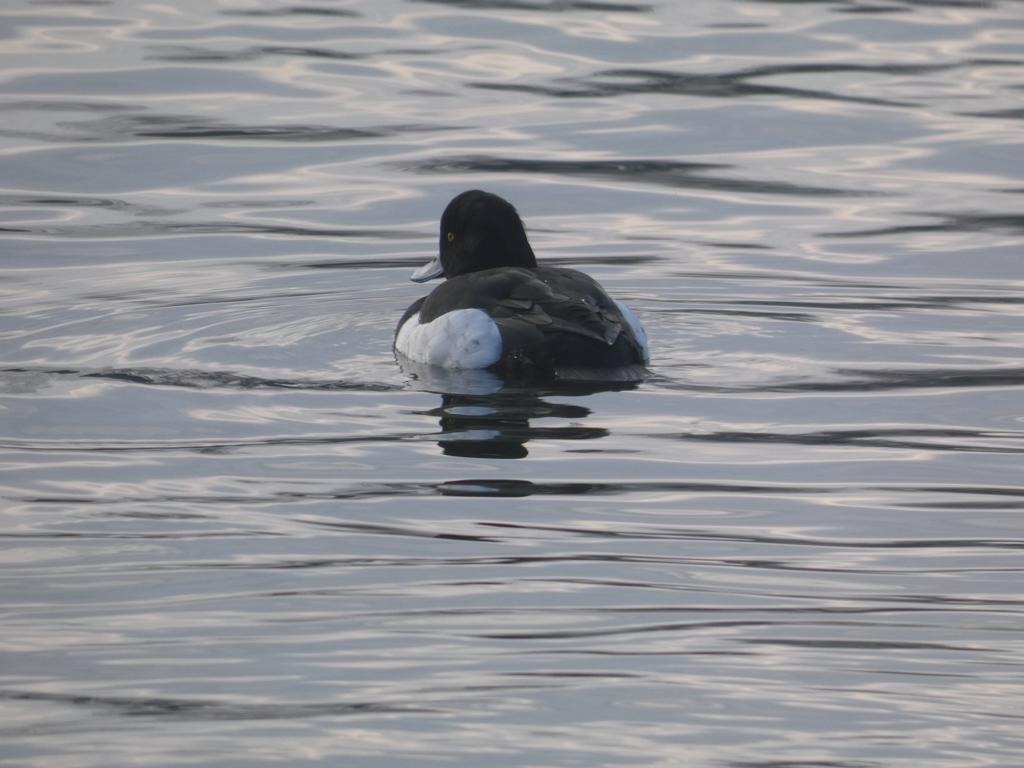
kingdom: Animalia
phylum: Chordata
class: Aves
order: Anseriformes
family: Anatidae
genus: Aythya
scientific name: Aythya fuligula
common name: Troldand
